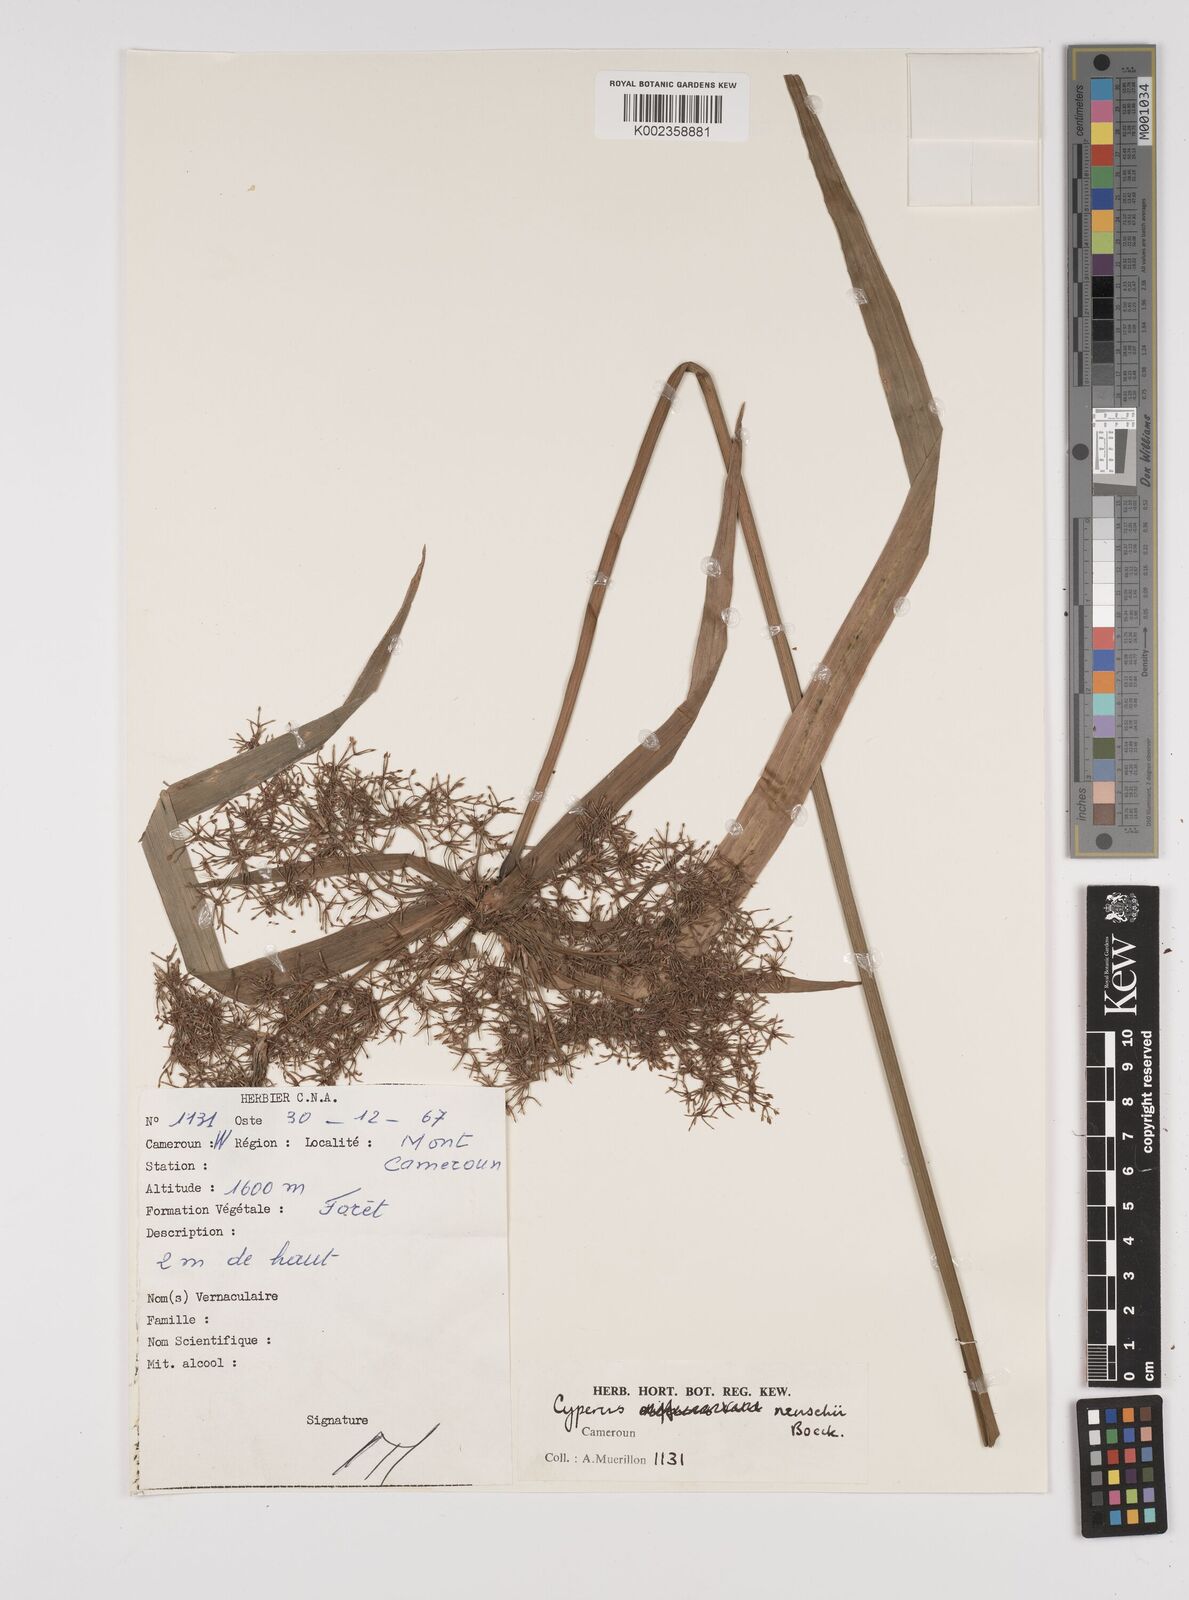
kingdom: Plantae
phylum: Tracheophyta
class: Liliopsida
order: Poales
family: Cyperaceae
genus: Cyperus
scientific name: Cyperus renschii
